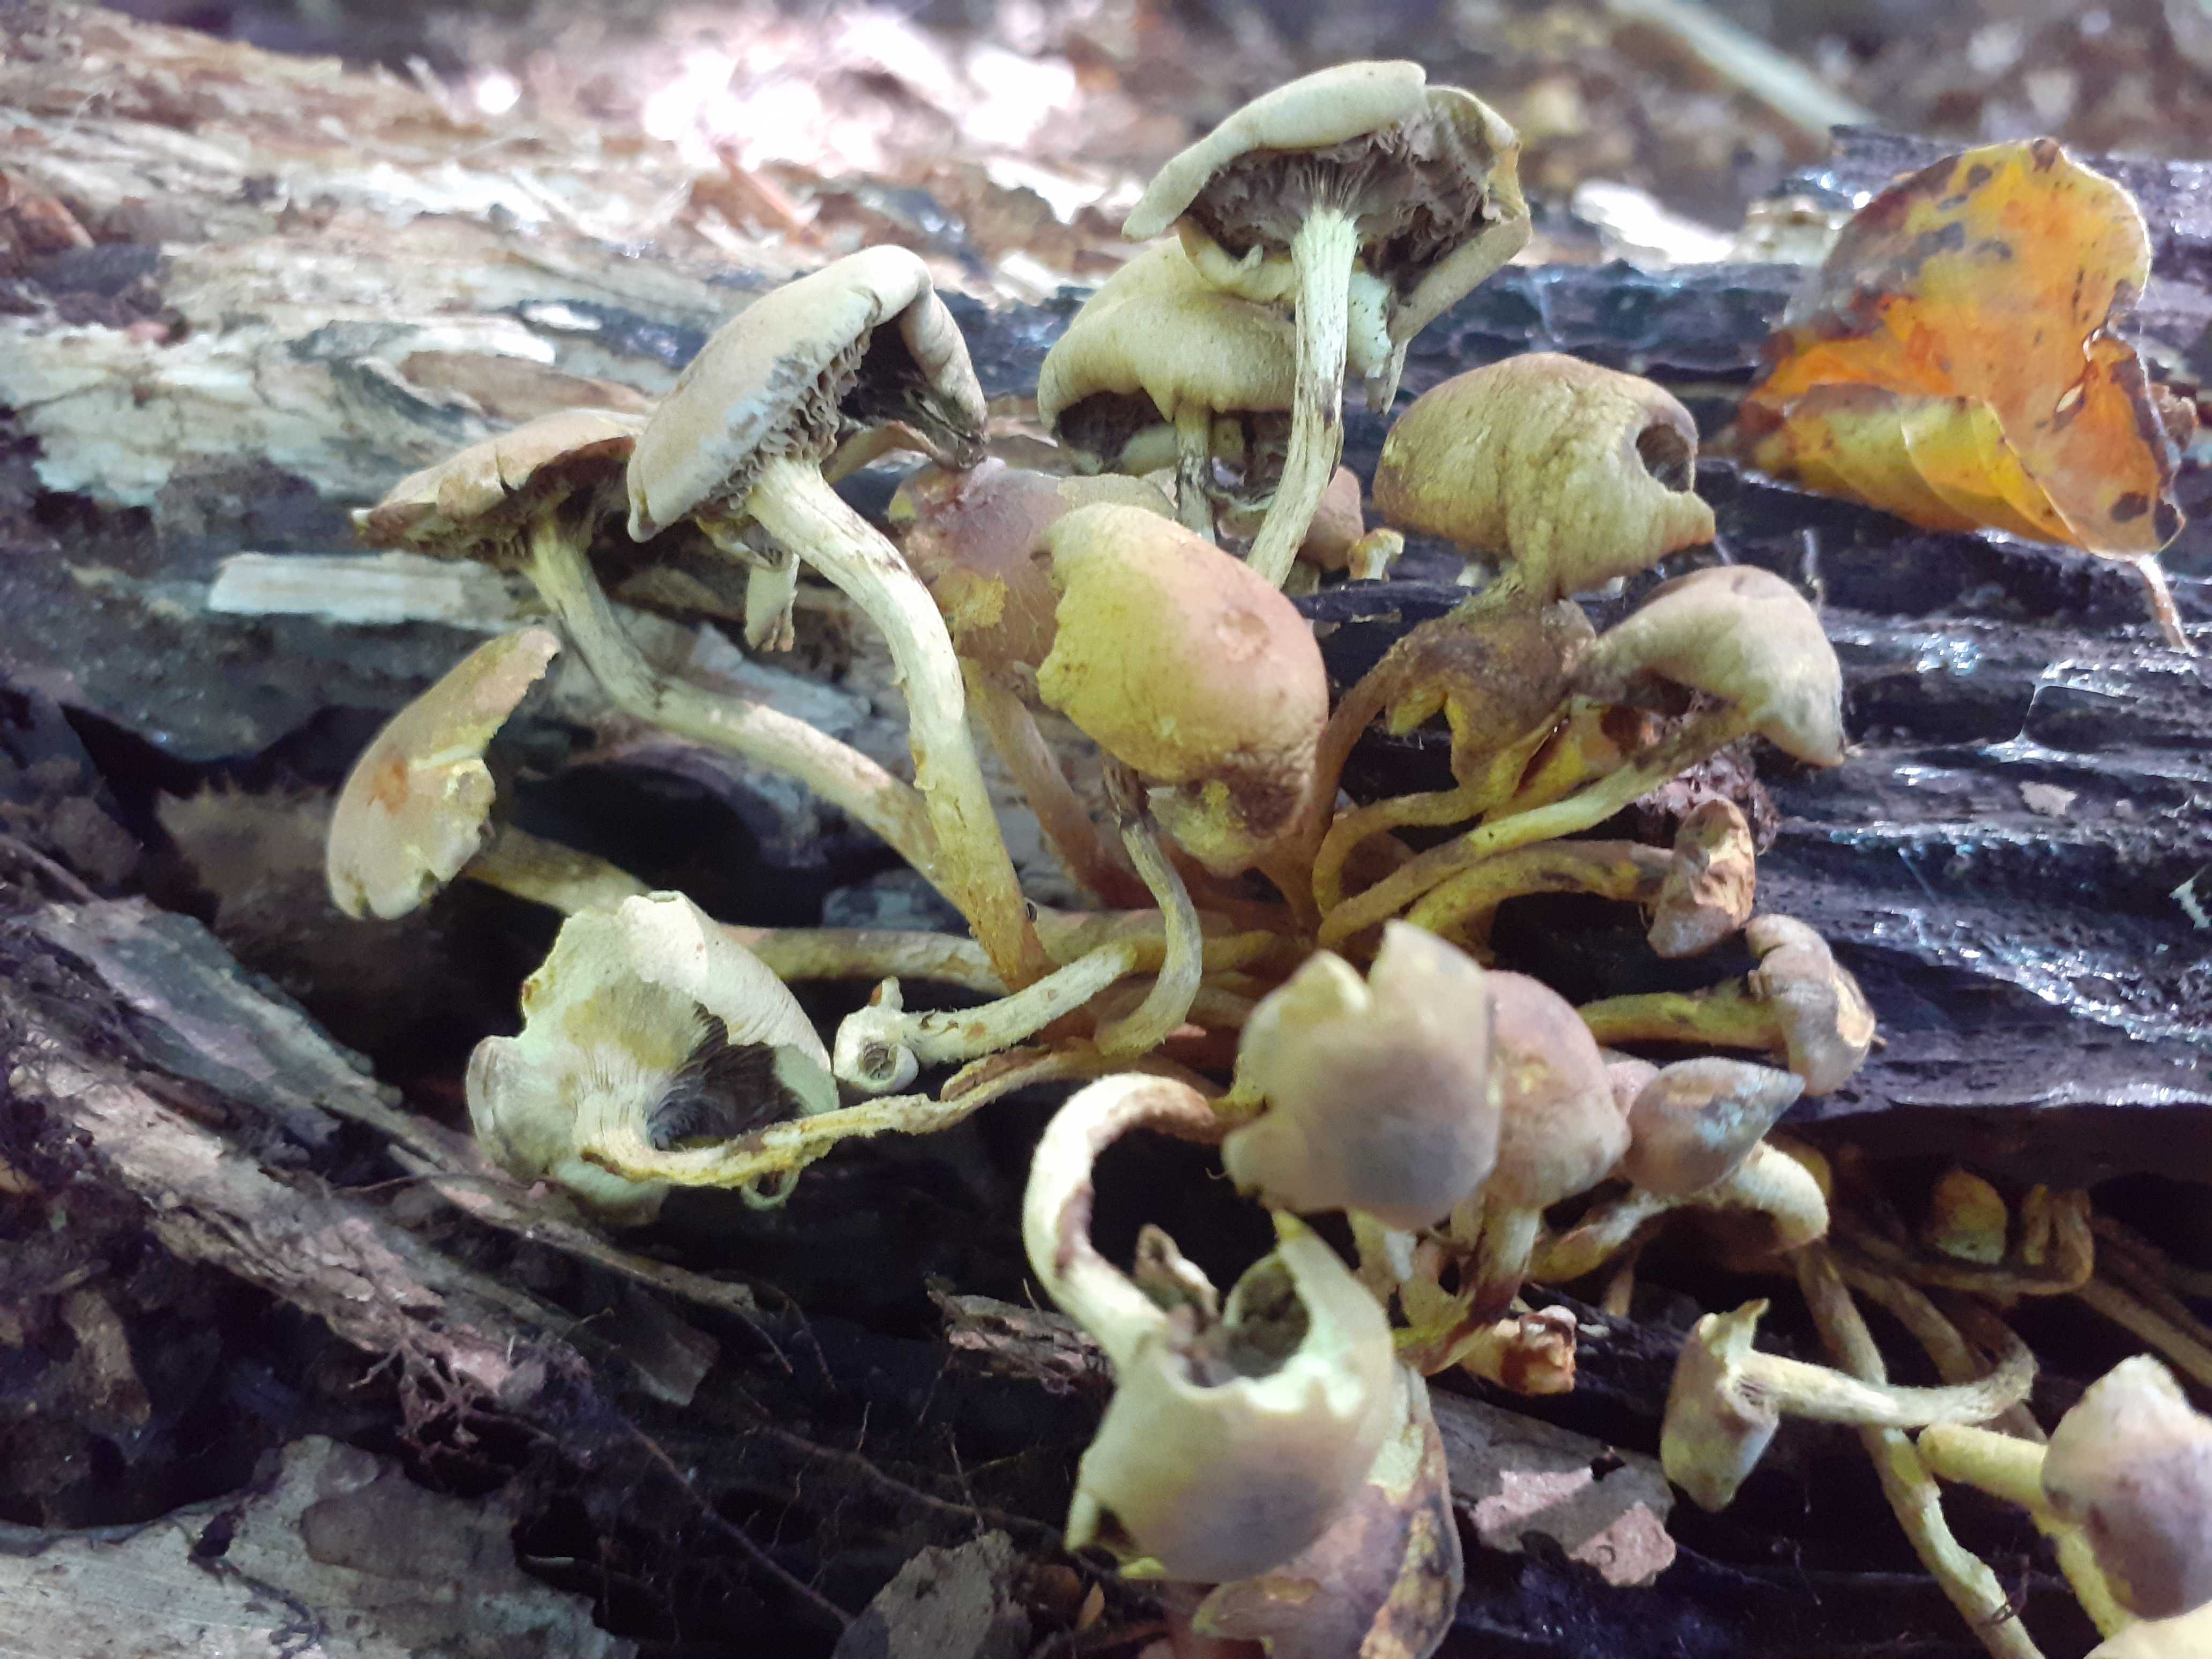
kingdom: Fungi
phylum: Basidiomycota
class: Agaricomycetes
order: Agaricales
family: Strophariaceae
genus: Hypholoma
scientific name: Hypholoma fasciculare
